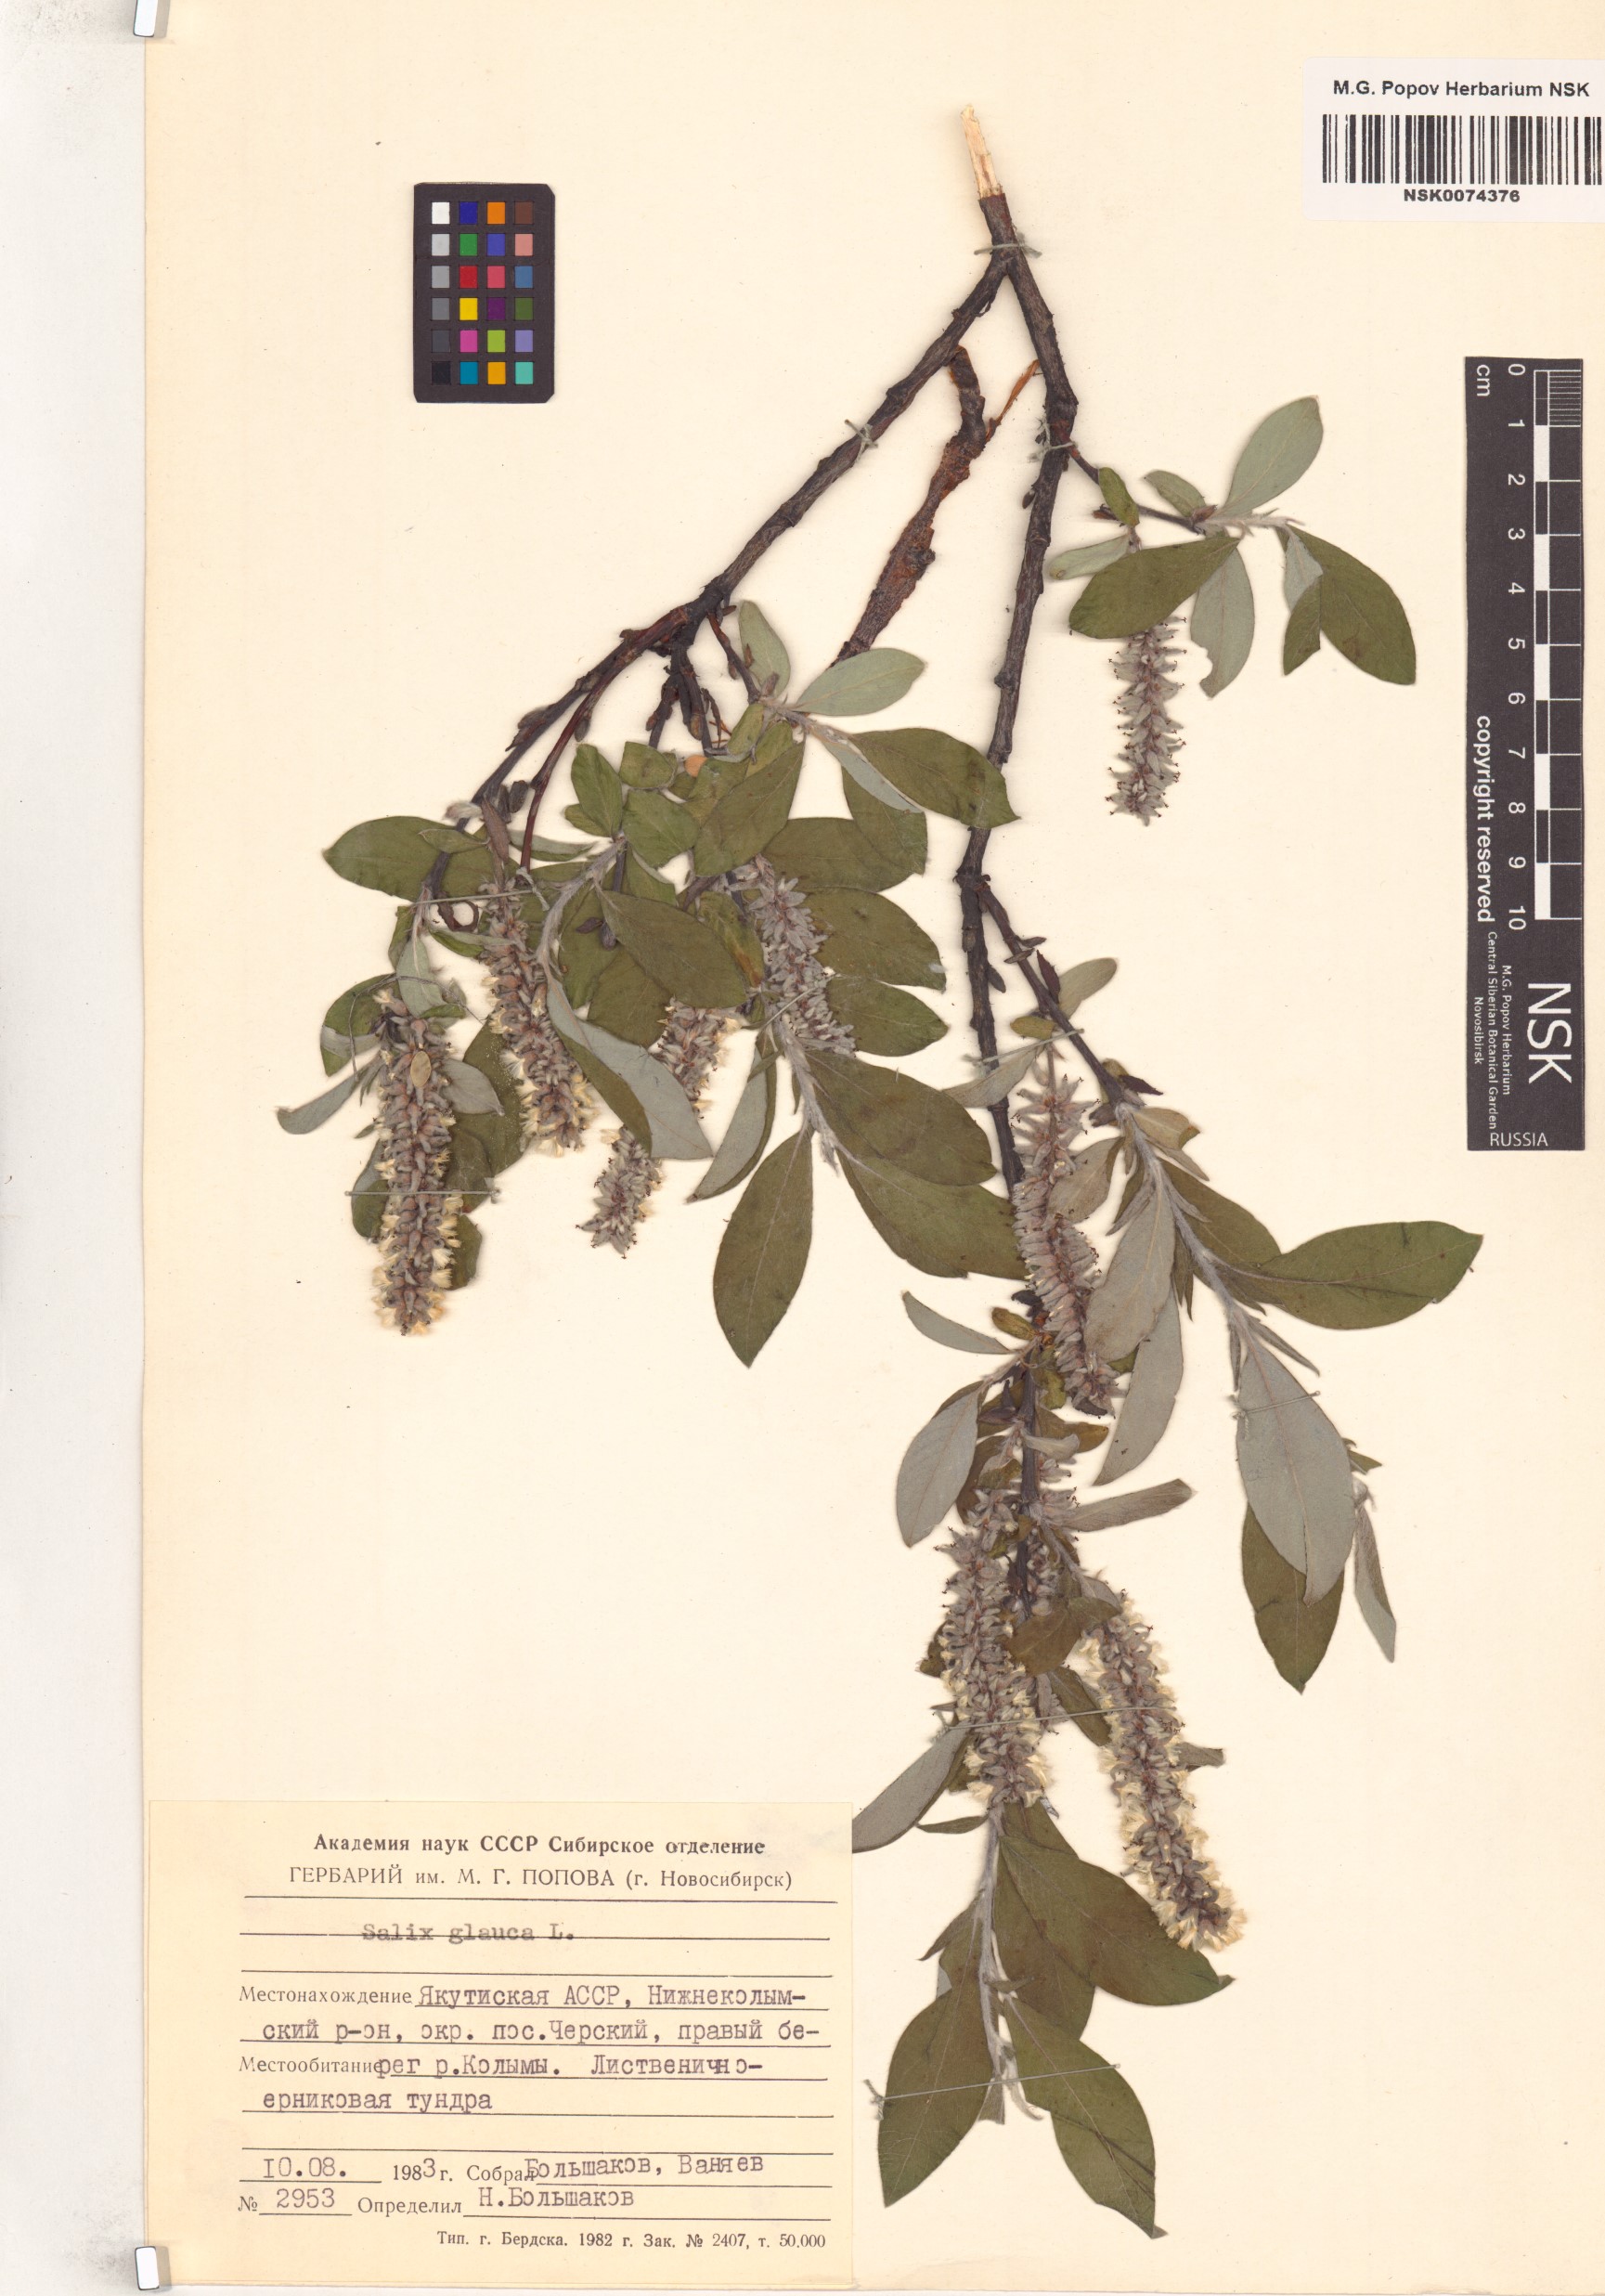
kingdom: Plantae
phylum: Tracheophyta
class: Magnoliopsida
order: Malpighiales
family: Salicaceae
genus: Salix
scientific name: Salix glauca
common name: Glaucous willow
